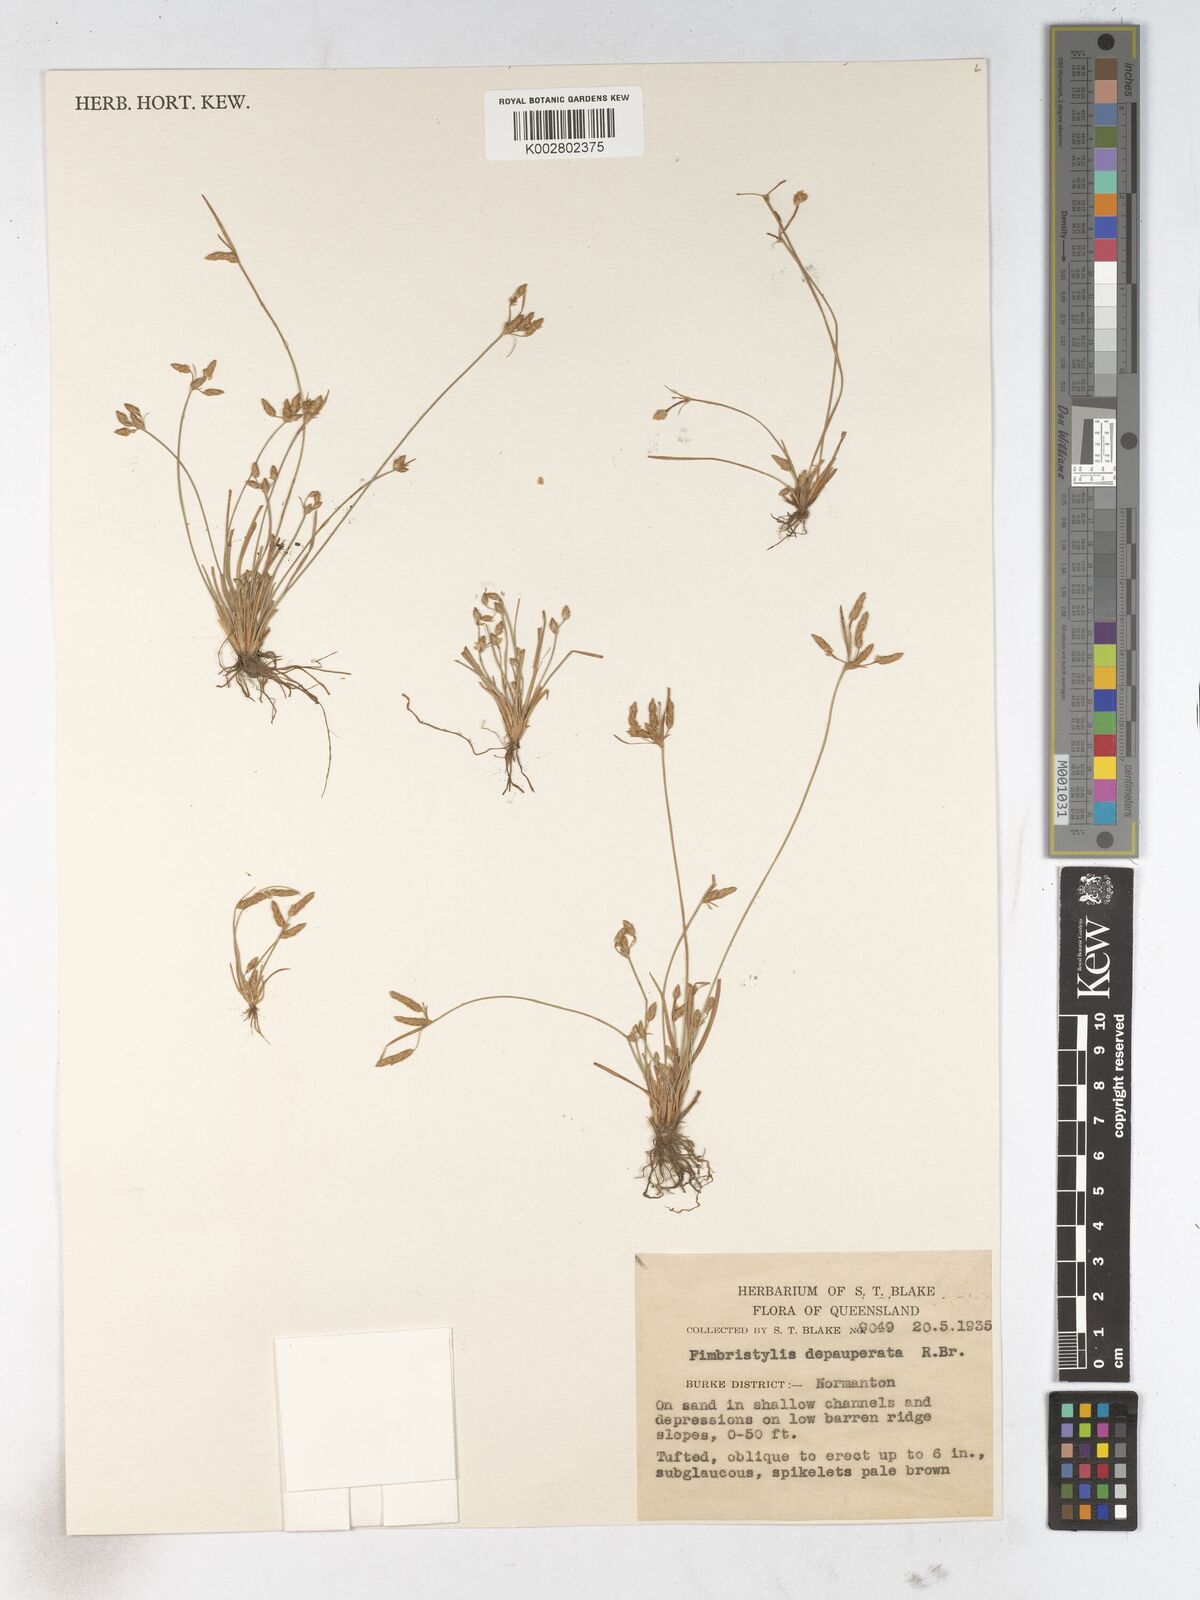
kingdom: Plantae
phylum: Tracheophyta
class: Liliopsida
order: Poales
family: Cyperaceae
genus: Fimbristylis
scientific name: Fimbristylis dichotoma
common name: Forked fimbry
